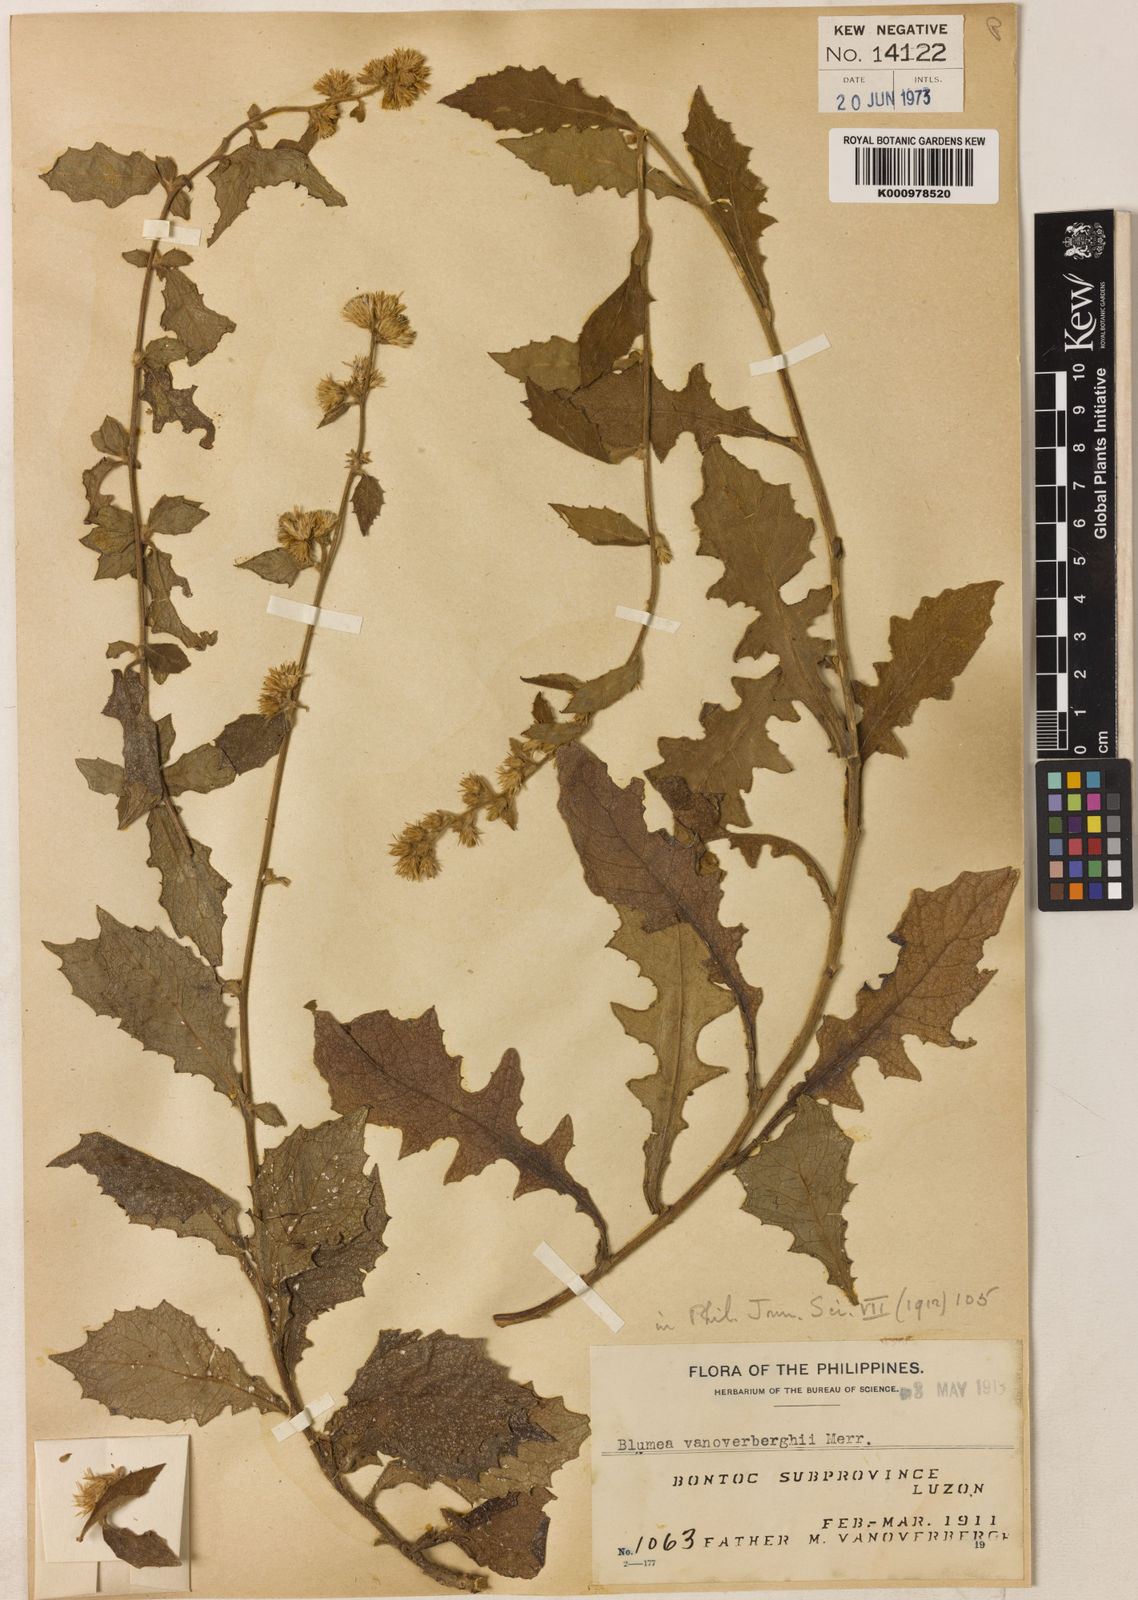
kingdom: Plantae
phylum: Tracheophyta
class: Magnoliopsida
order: Asterales
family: Asteraceae
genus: Blumea
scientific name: Blumea vanoverberghii
